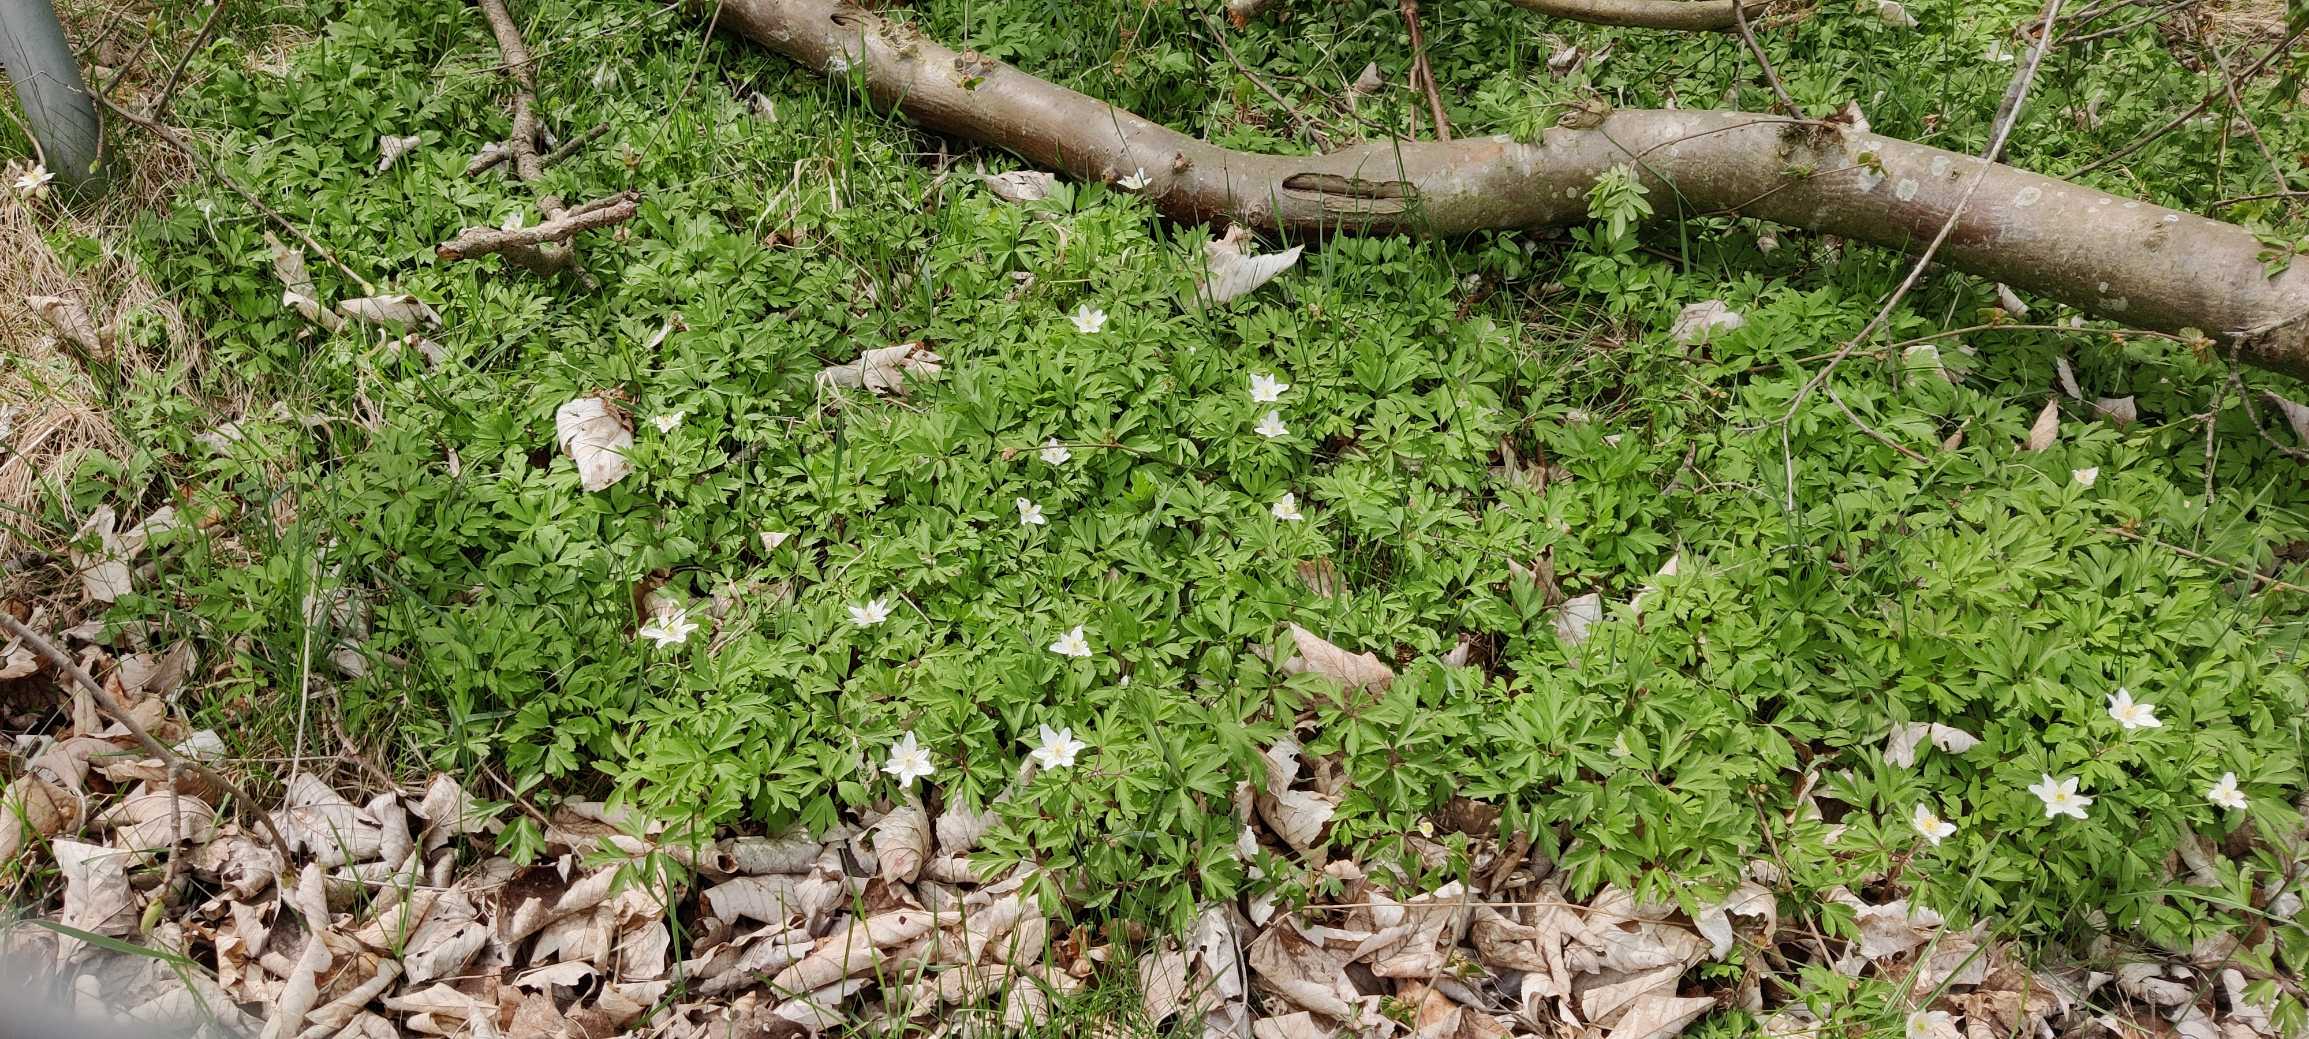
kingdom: Plantae
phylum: Tracheophyta
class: Magnoliopsida
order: Ranunculales
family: Ranunculaceae
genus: Anemone
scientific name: Anemone nemorosa
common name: Hvid anemone
